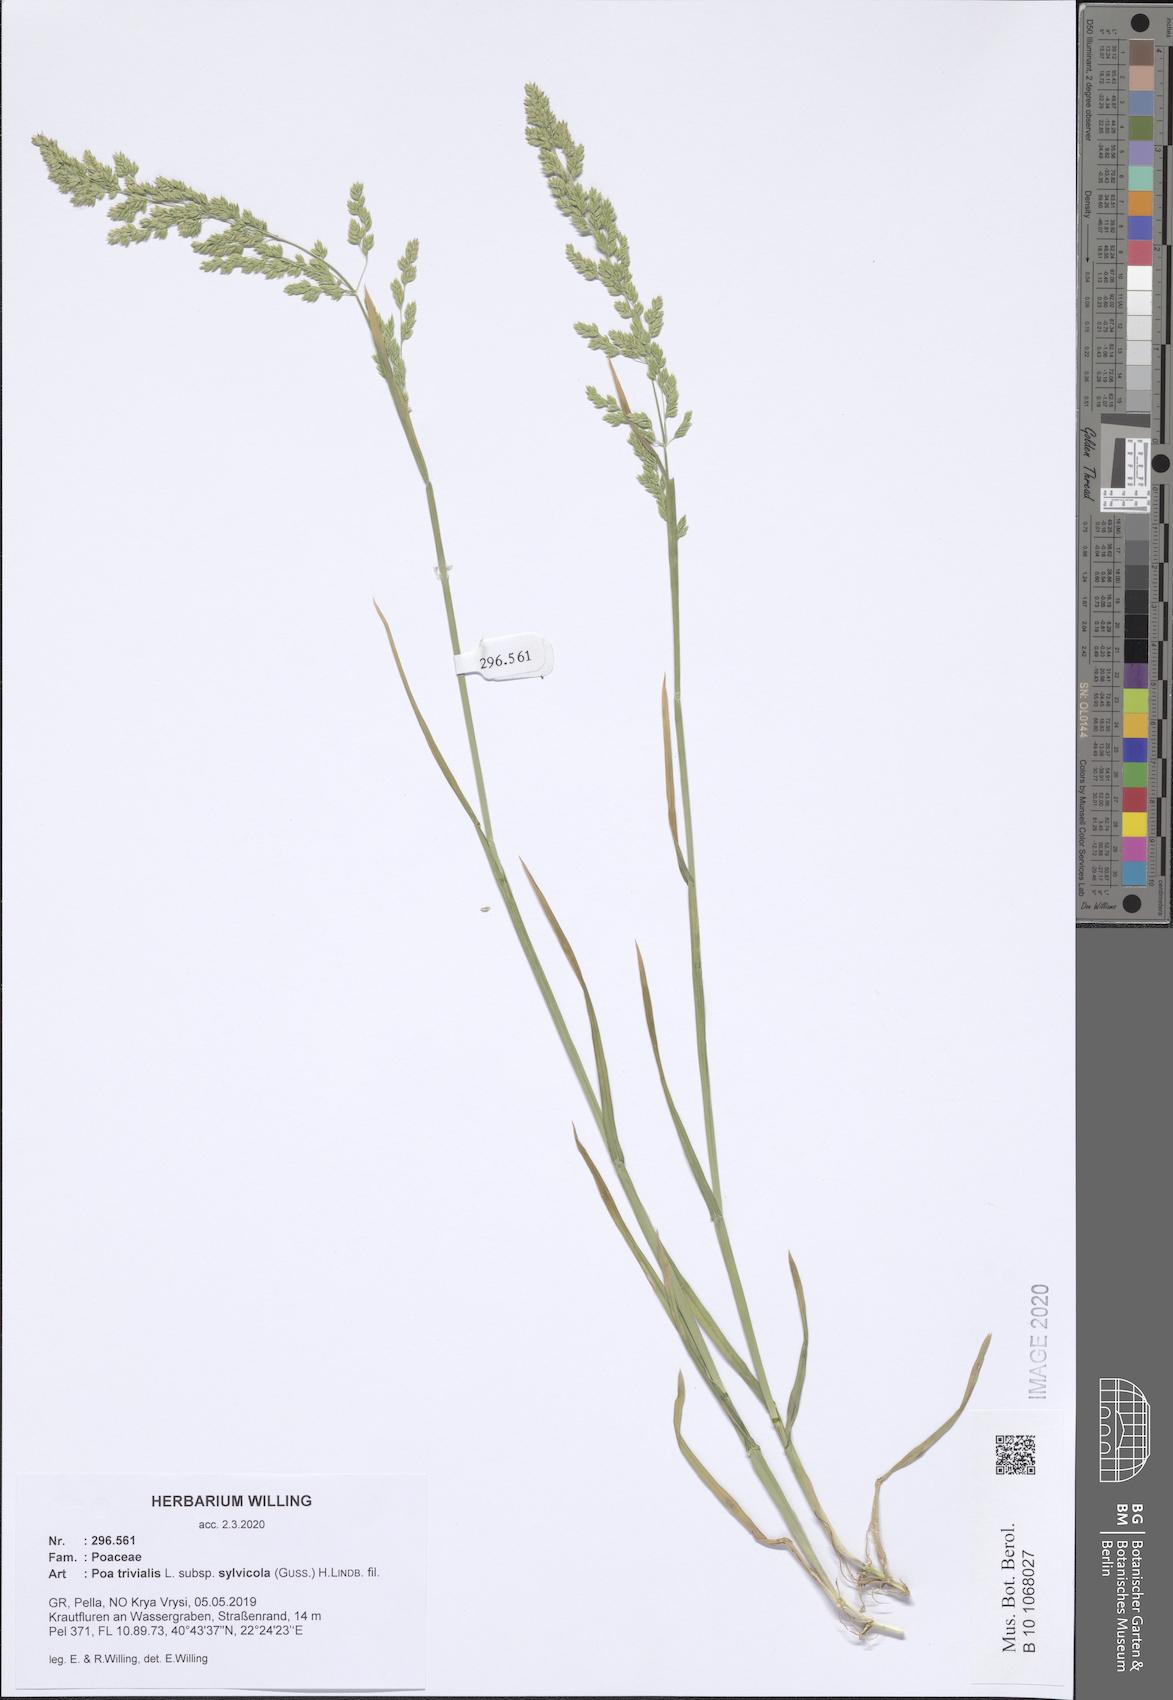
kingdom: Plantae
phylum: Tracheophyta
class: Liliopsida
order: Poales
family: Poaceae
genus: Poa
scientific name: Poa trivialis
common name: Rough bluegrass
